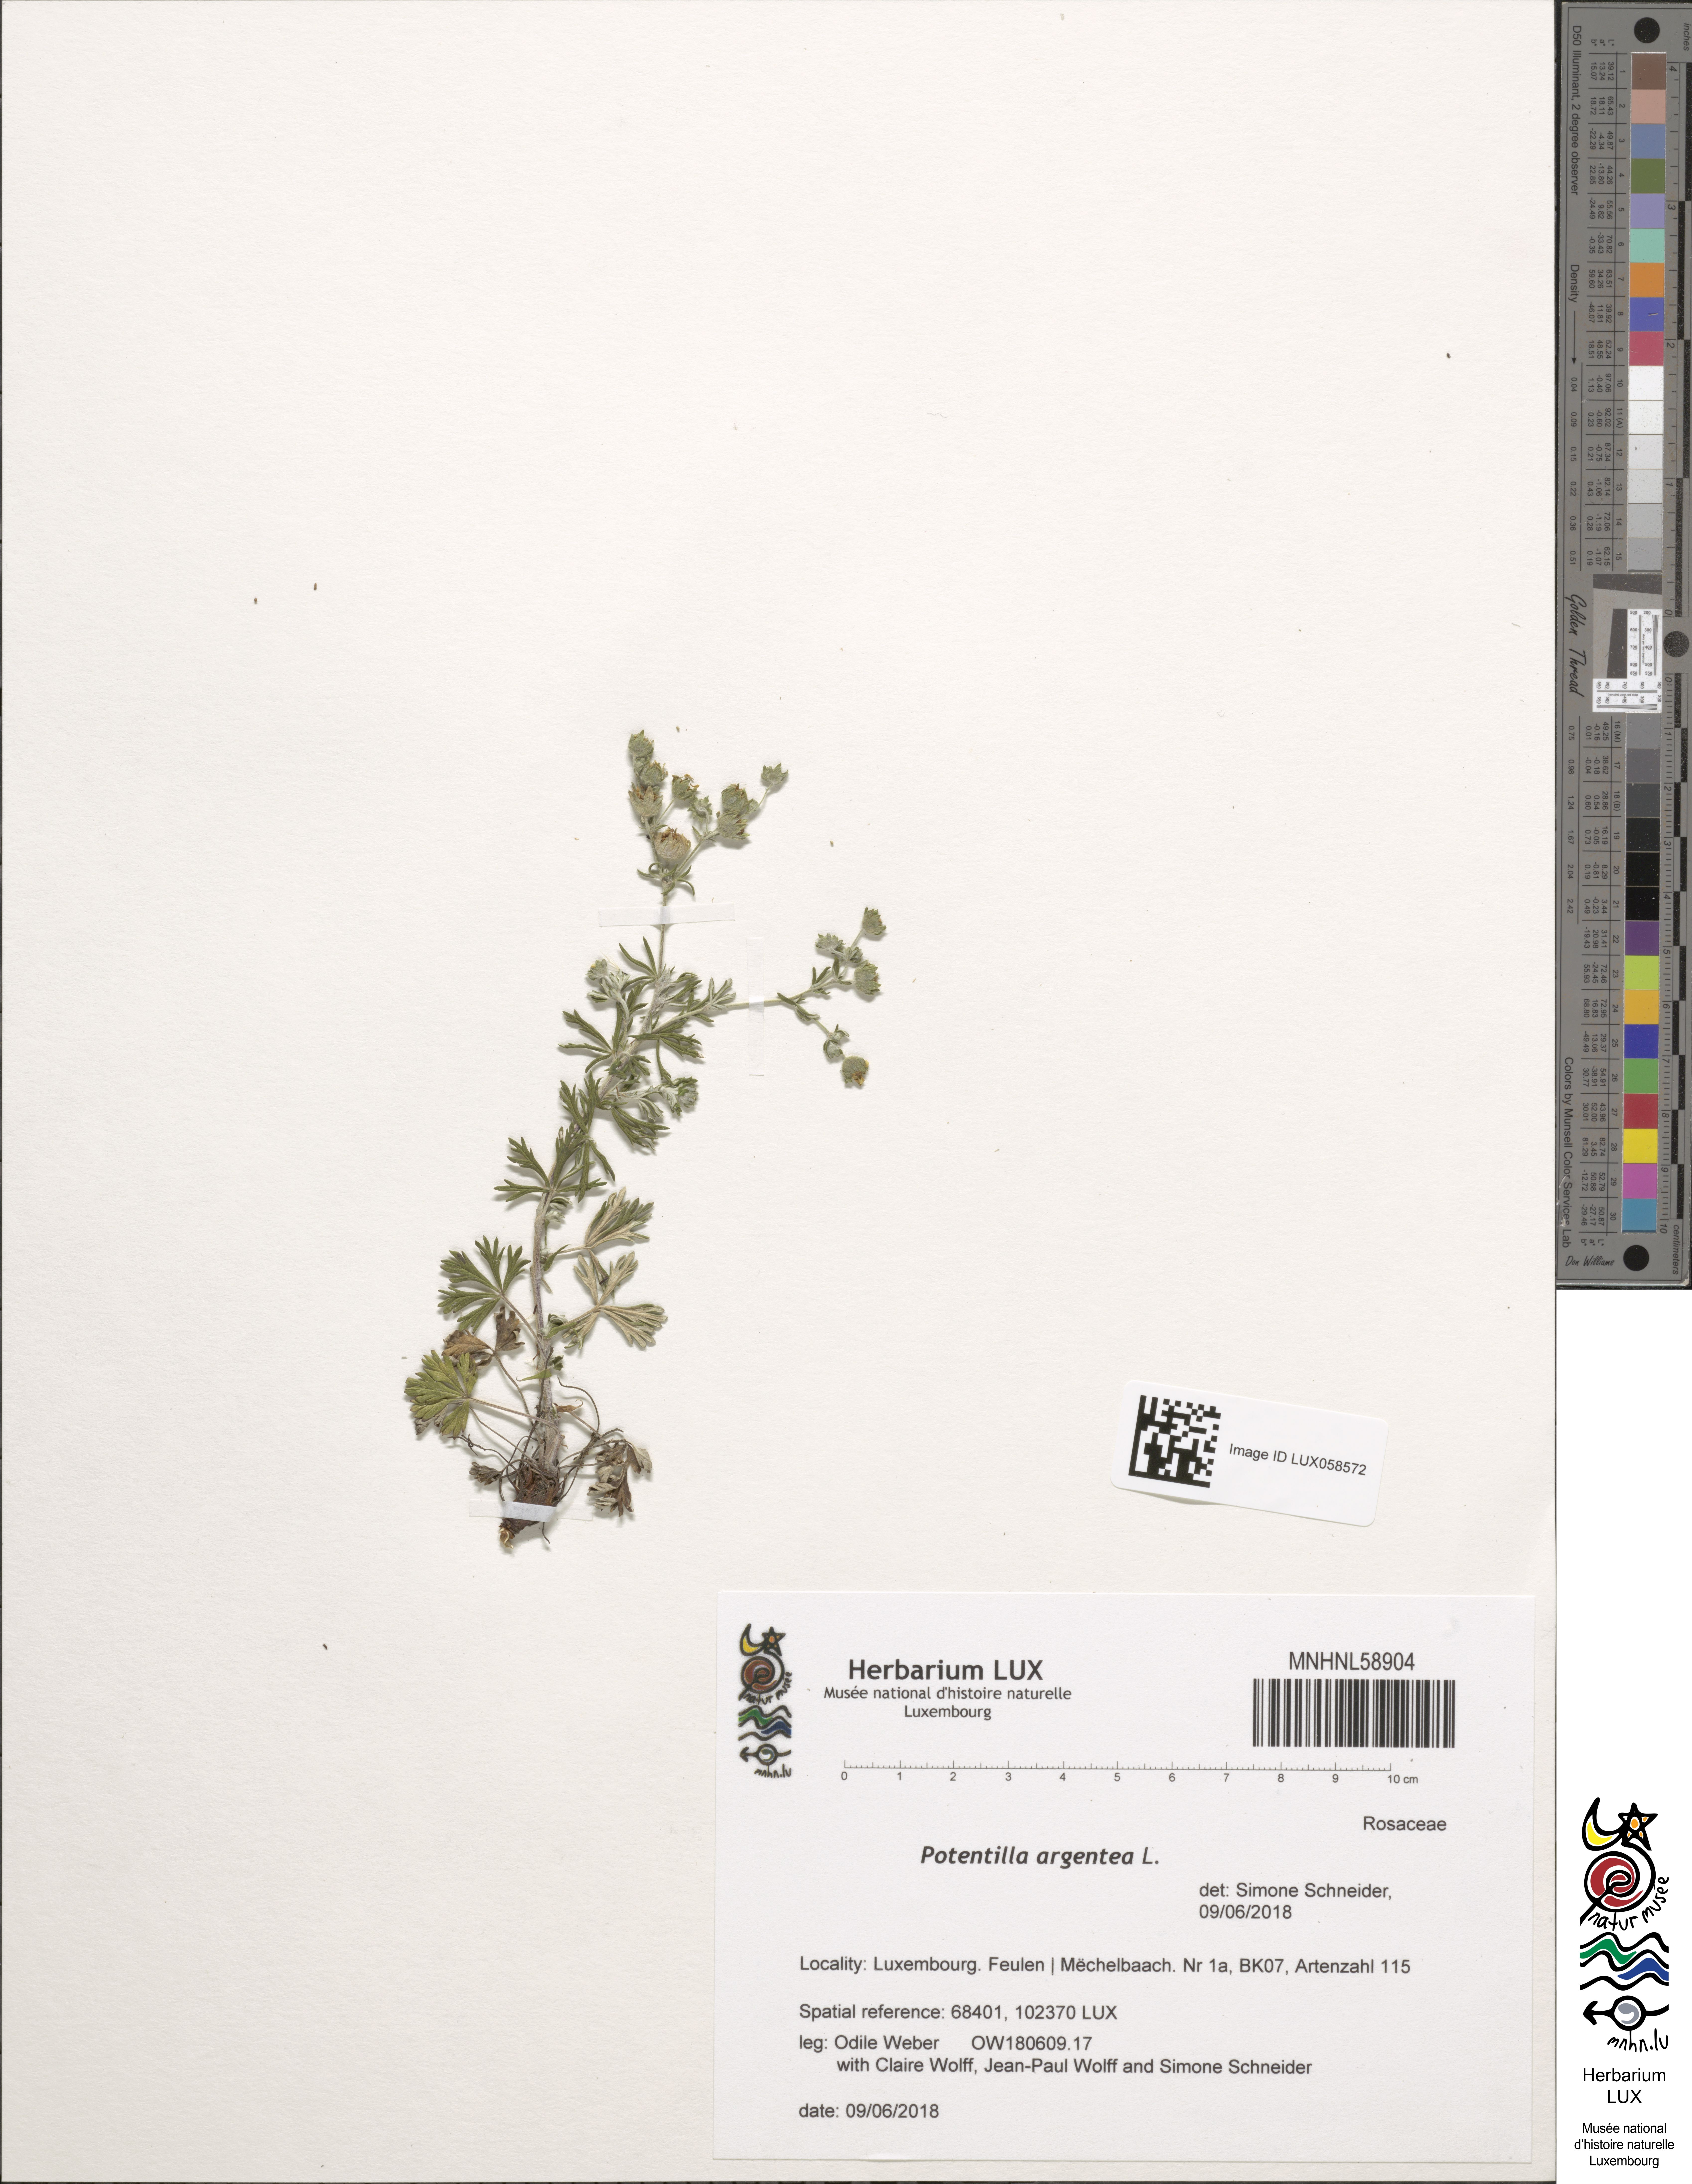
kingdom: Plantae
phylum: Tracheophyta
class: Magnoliopsida
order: Rosales
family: Rosaceae
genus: Potentilla
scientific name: Potentilla argentea
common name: Hoary cinquefoil
